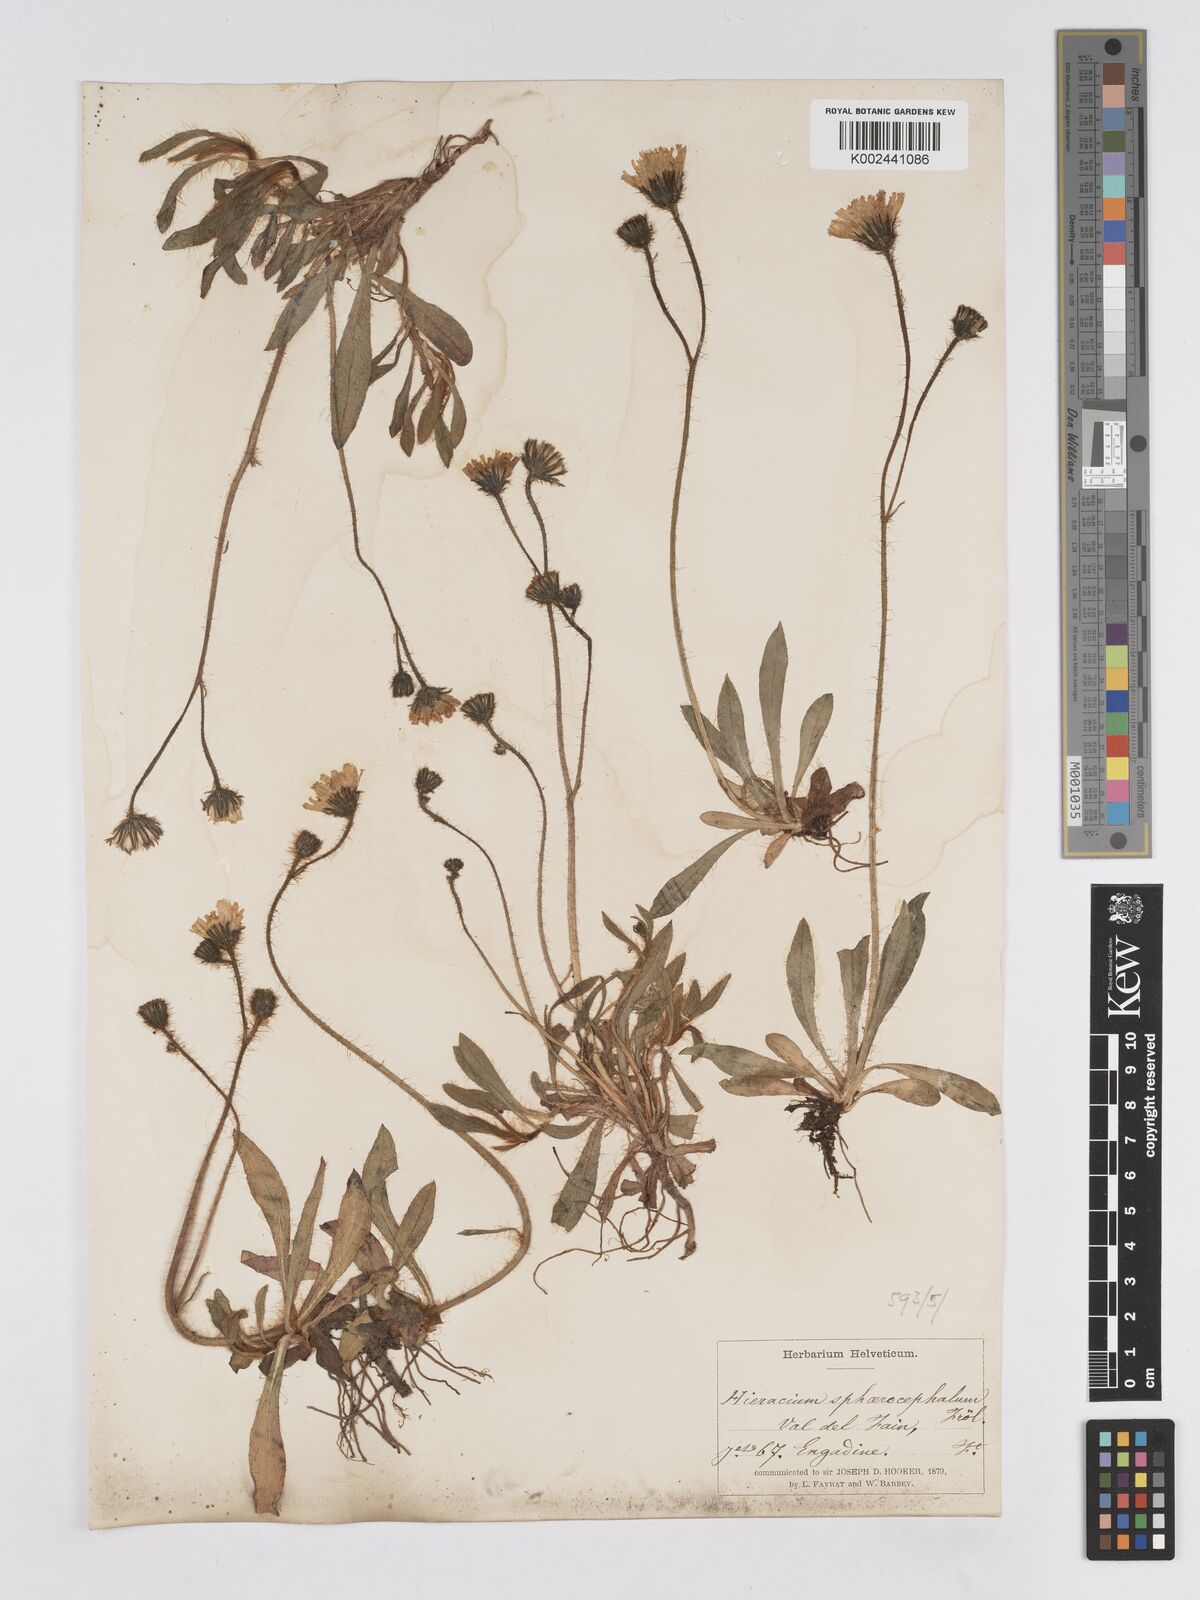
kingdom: Plantae
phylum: Tracheophyta
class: Magnoliopsida
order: Asterales
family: Asteraceae
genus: Pilosella
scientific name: Pilosella sphaerocephala
